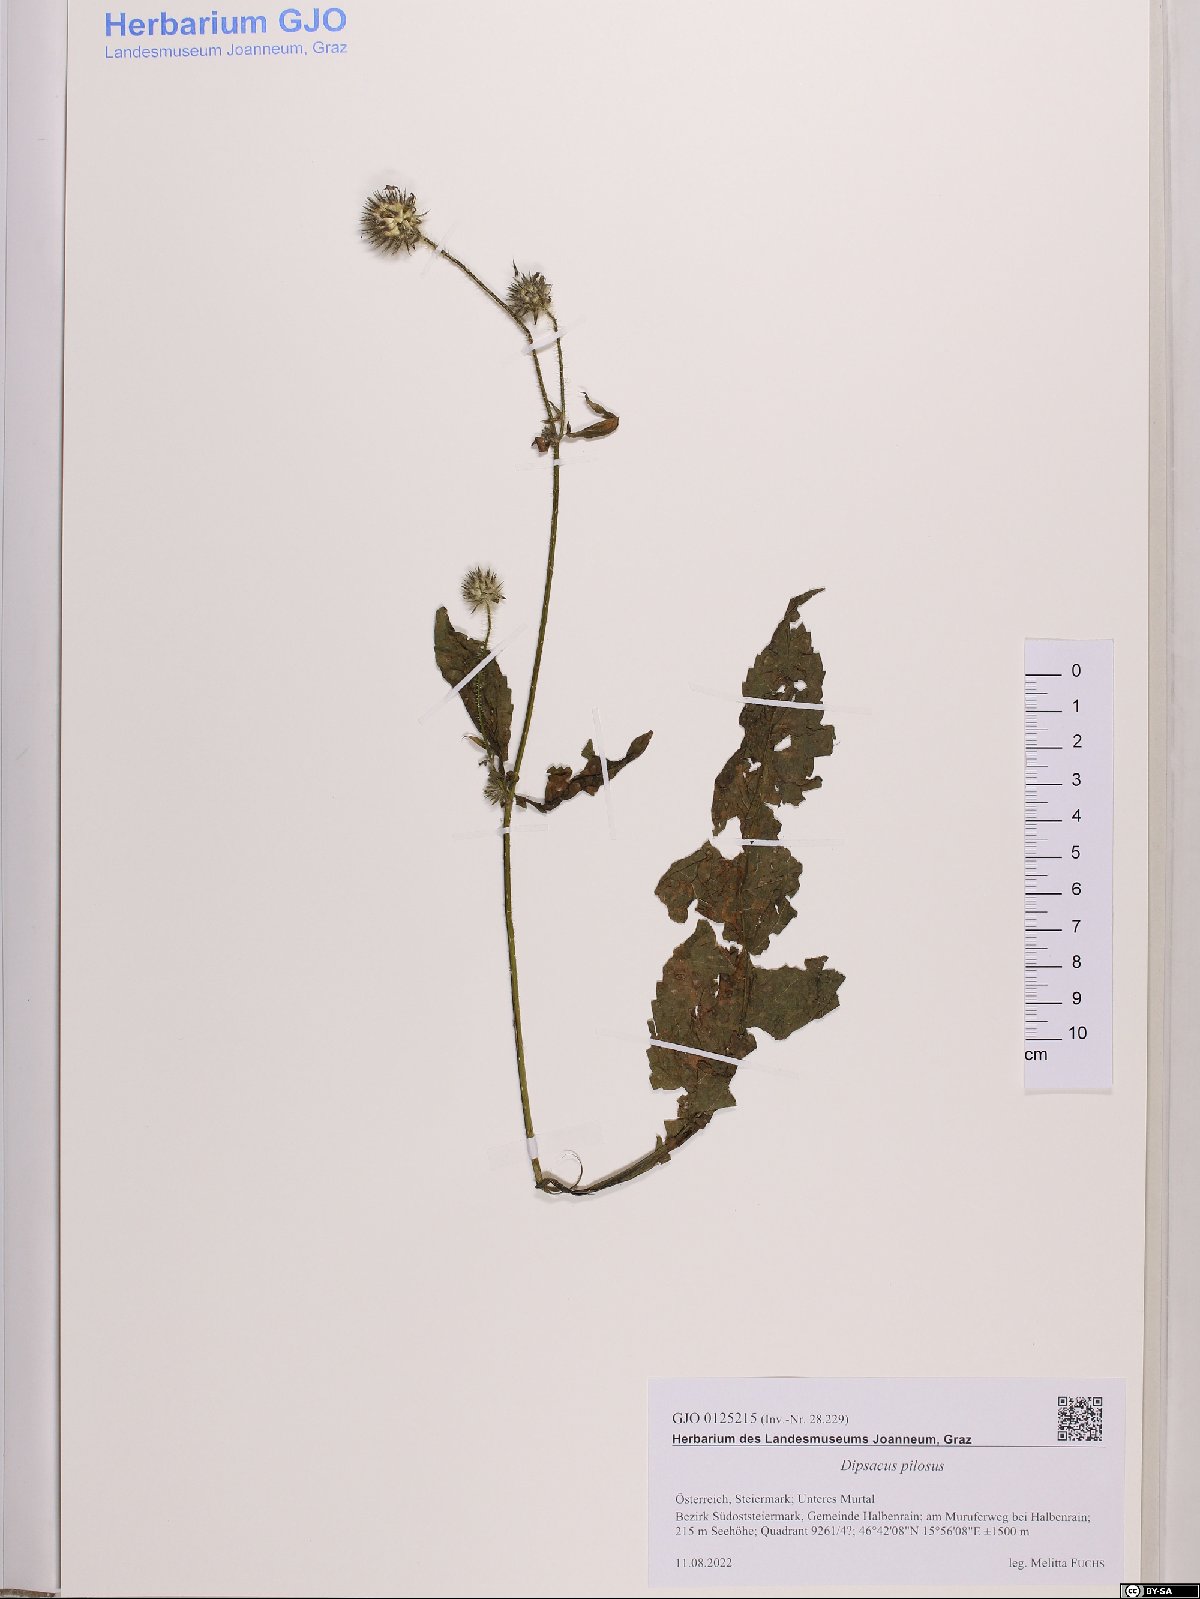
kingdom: Plantae
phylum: Tracheophyta
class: Magnoliopsida
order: Dipsacales
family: Caprifoliaceae
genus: Dipsacus
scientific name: Dipsacus pilosus
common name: Small teasel
